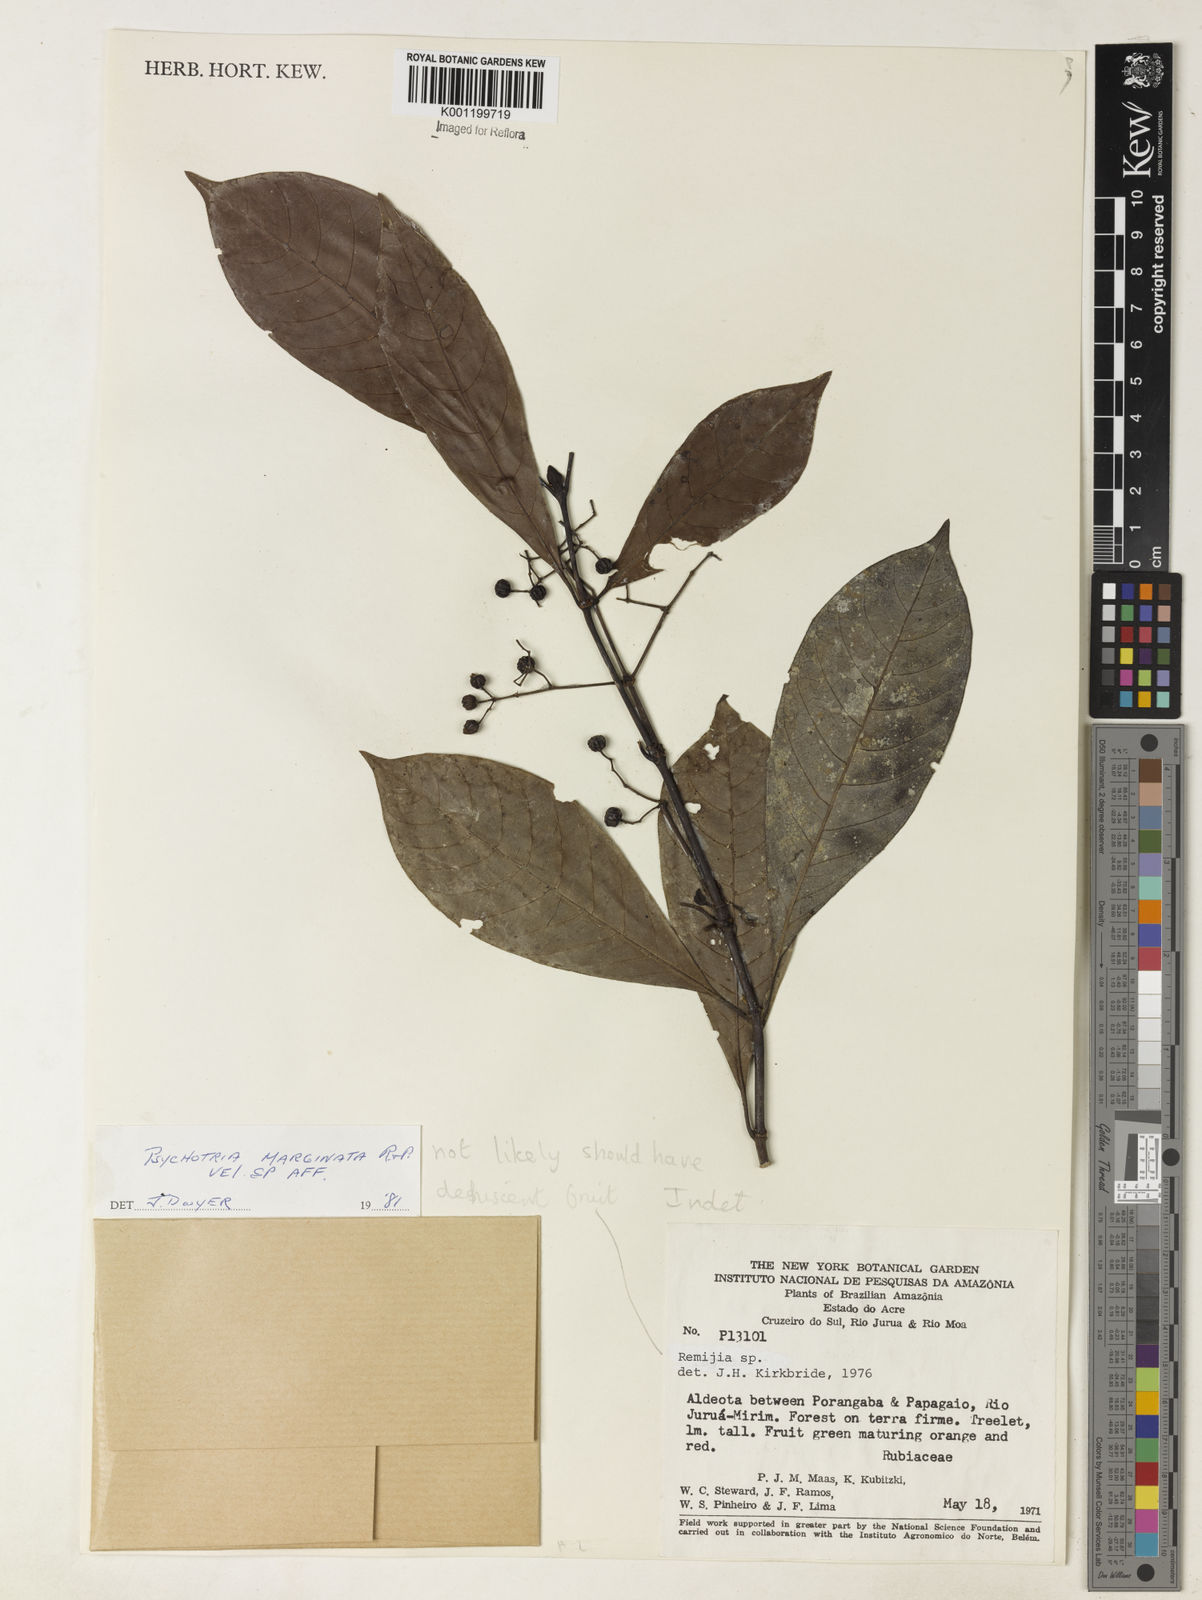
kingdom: Plantae
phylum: Tracheophyta
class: Magnoliopsida
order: Gentianales
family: Rubiaceae
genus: Psychotria
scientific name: Psychotria marginata
